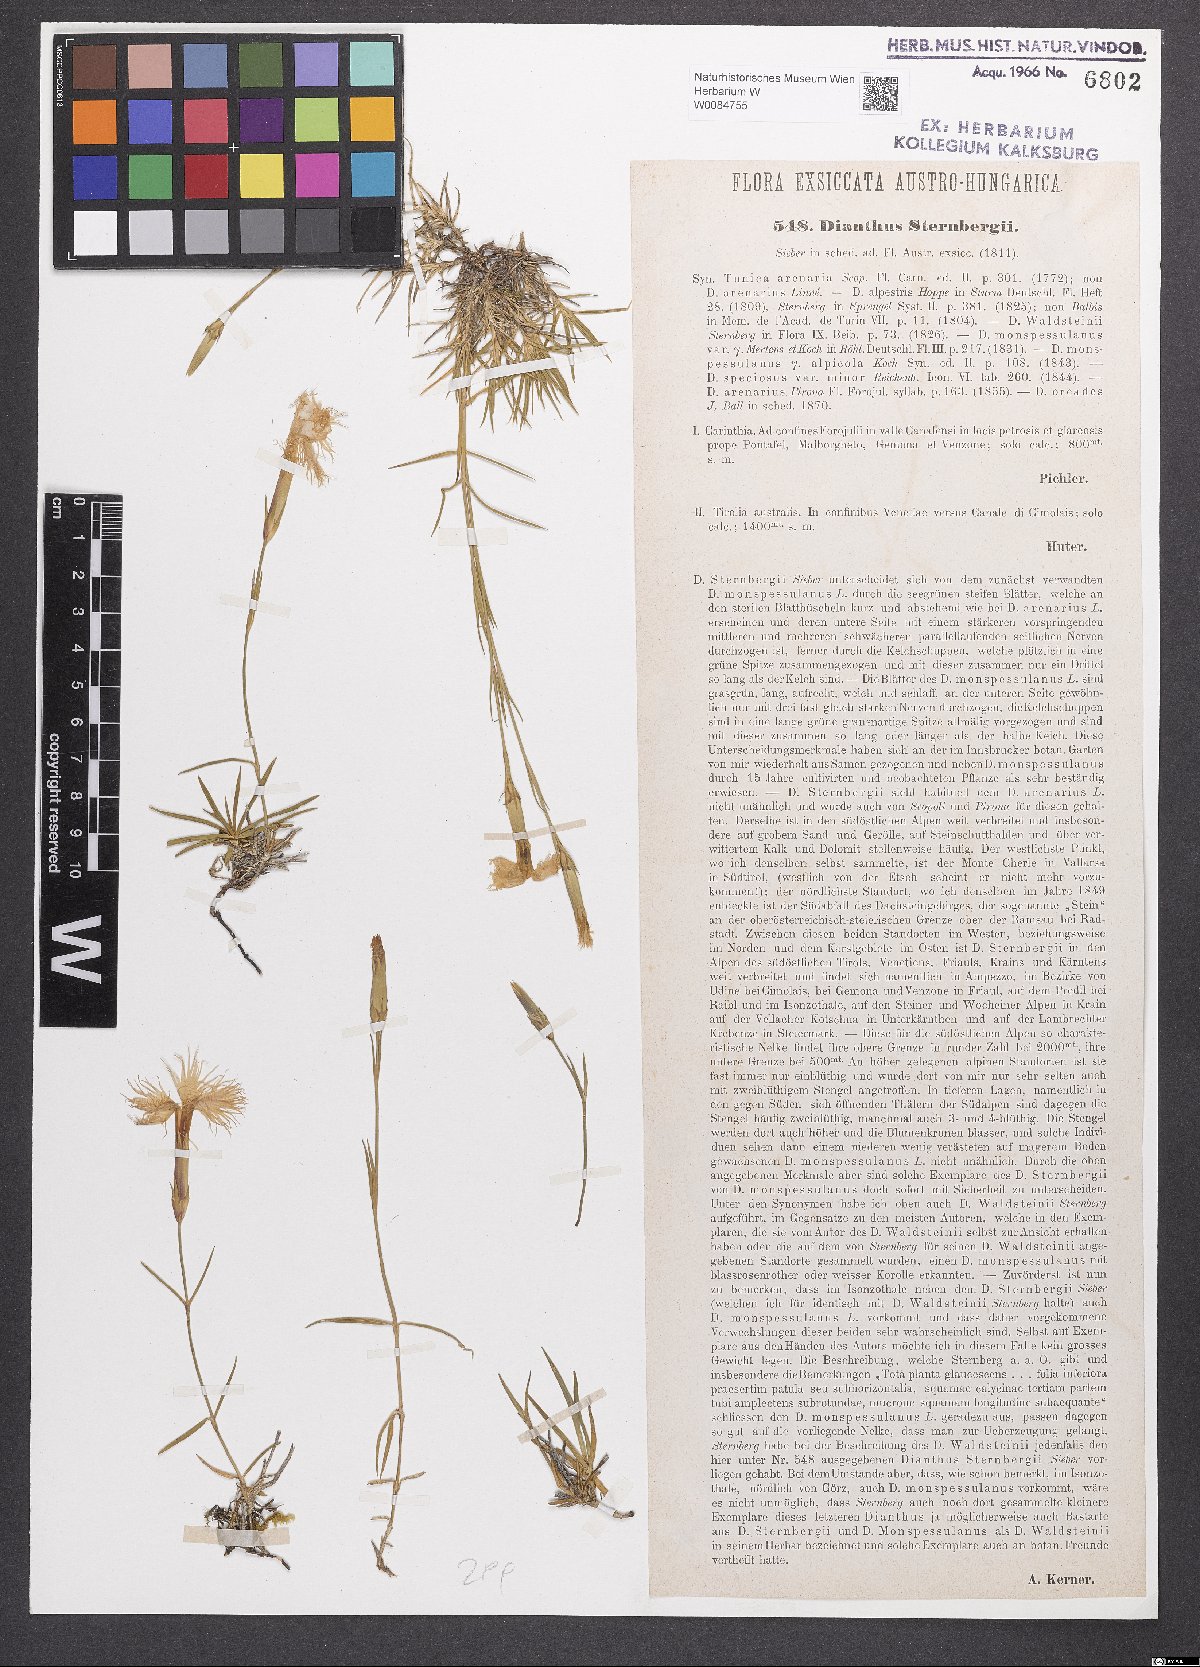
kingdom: Plantae
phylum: Tracheophyta
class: Magnoliopsida
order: Caryophyllales
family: Caryophyllaceae
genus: Dianthus
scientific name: Dianthus monspessulanus
